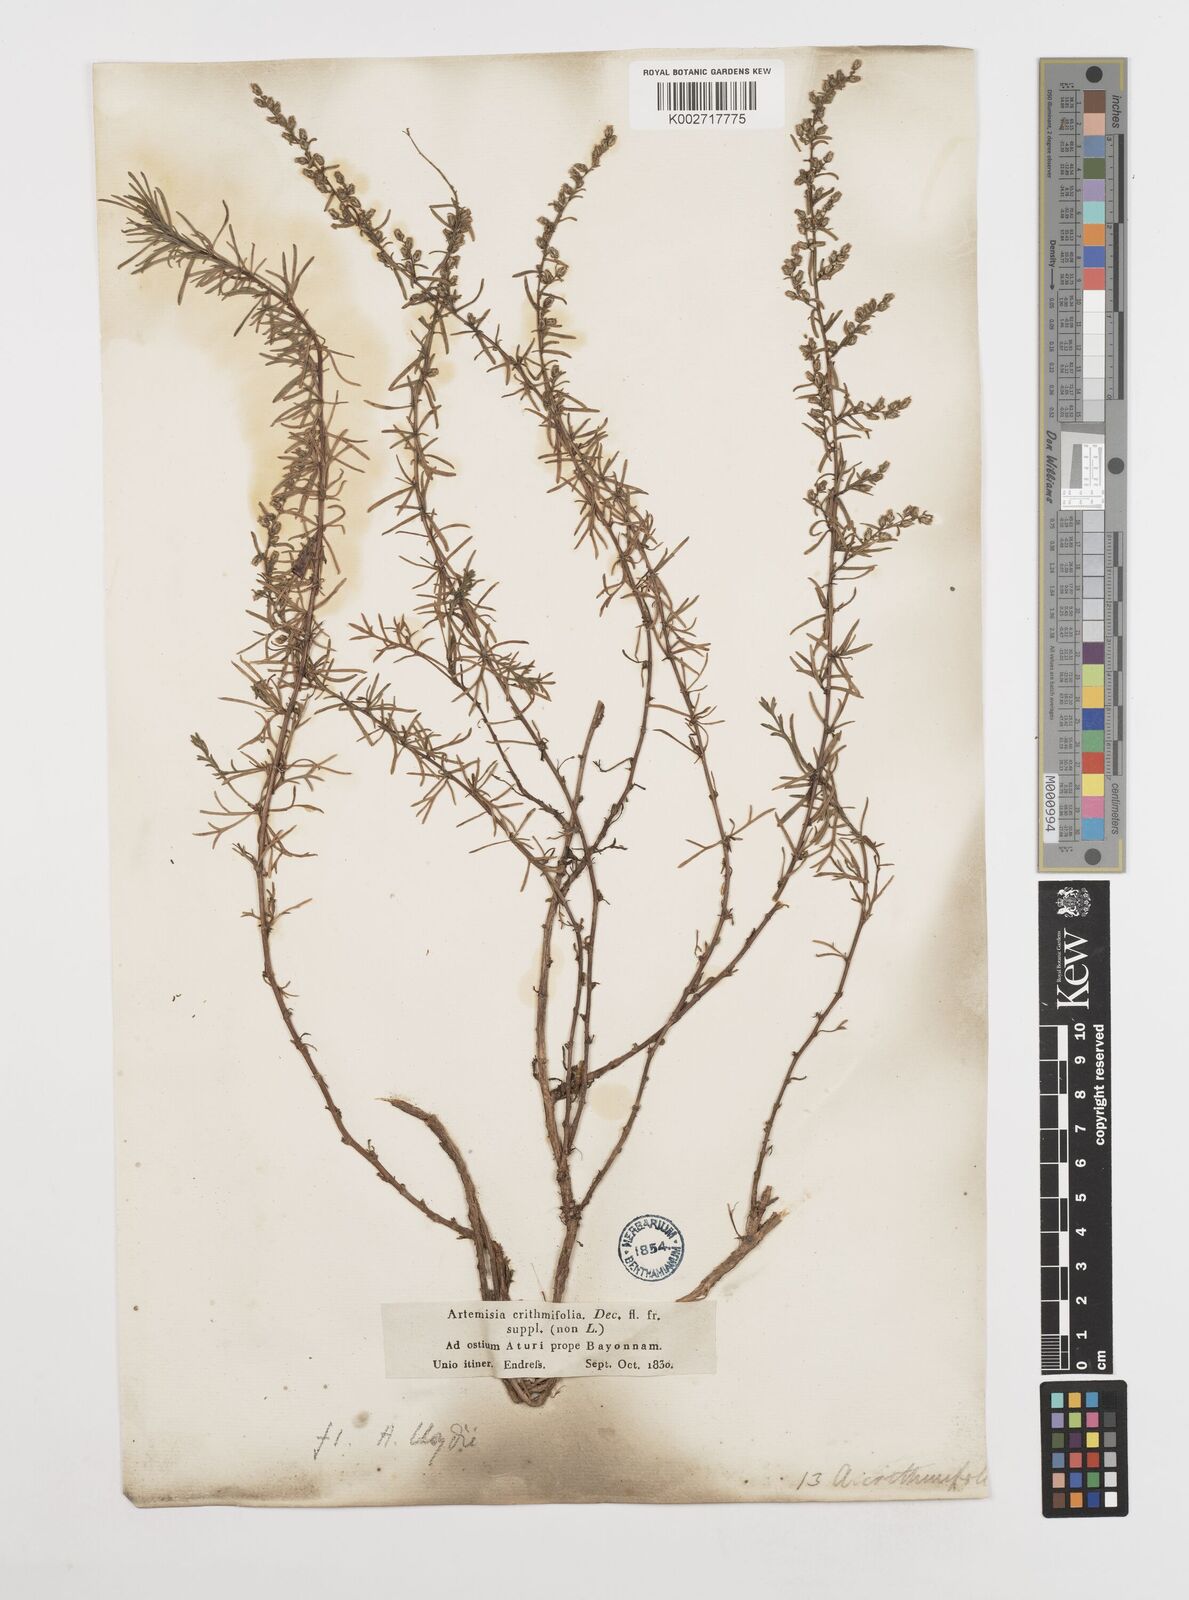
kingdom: Plantae
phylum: Tracheophyta
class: Magnoliopsida
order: Asterales
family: Asteraceae
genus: Artemisia
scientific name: Artemisia campestris
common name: Field wormwood
